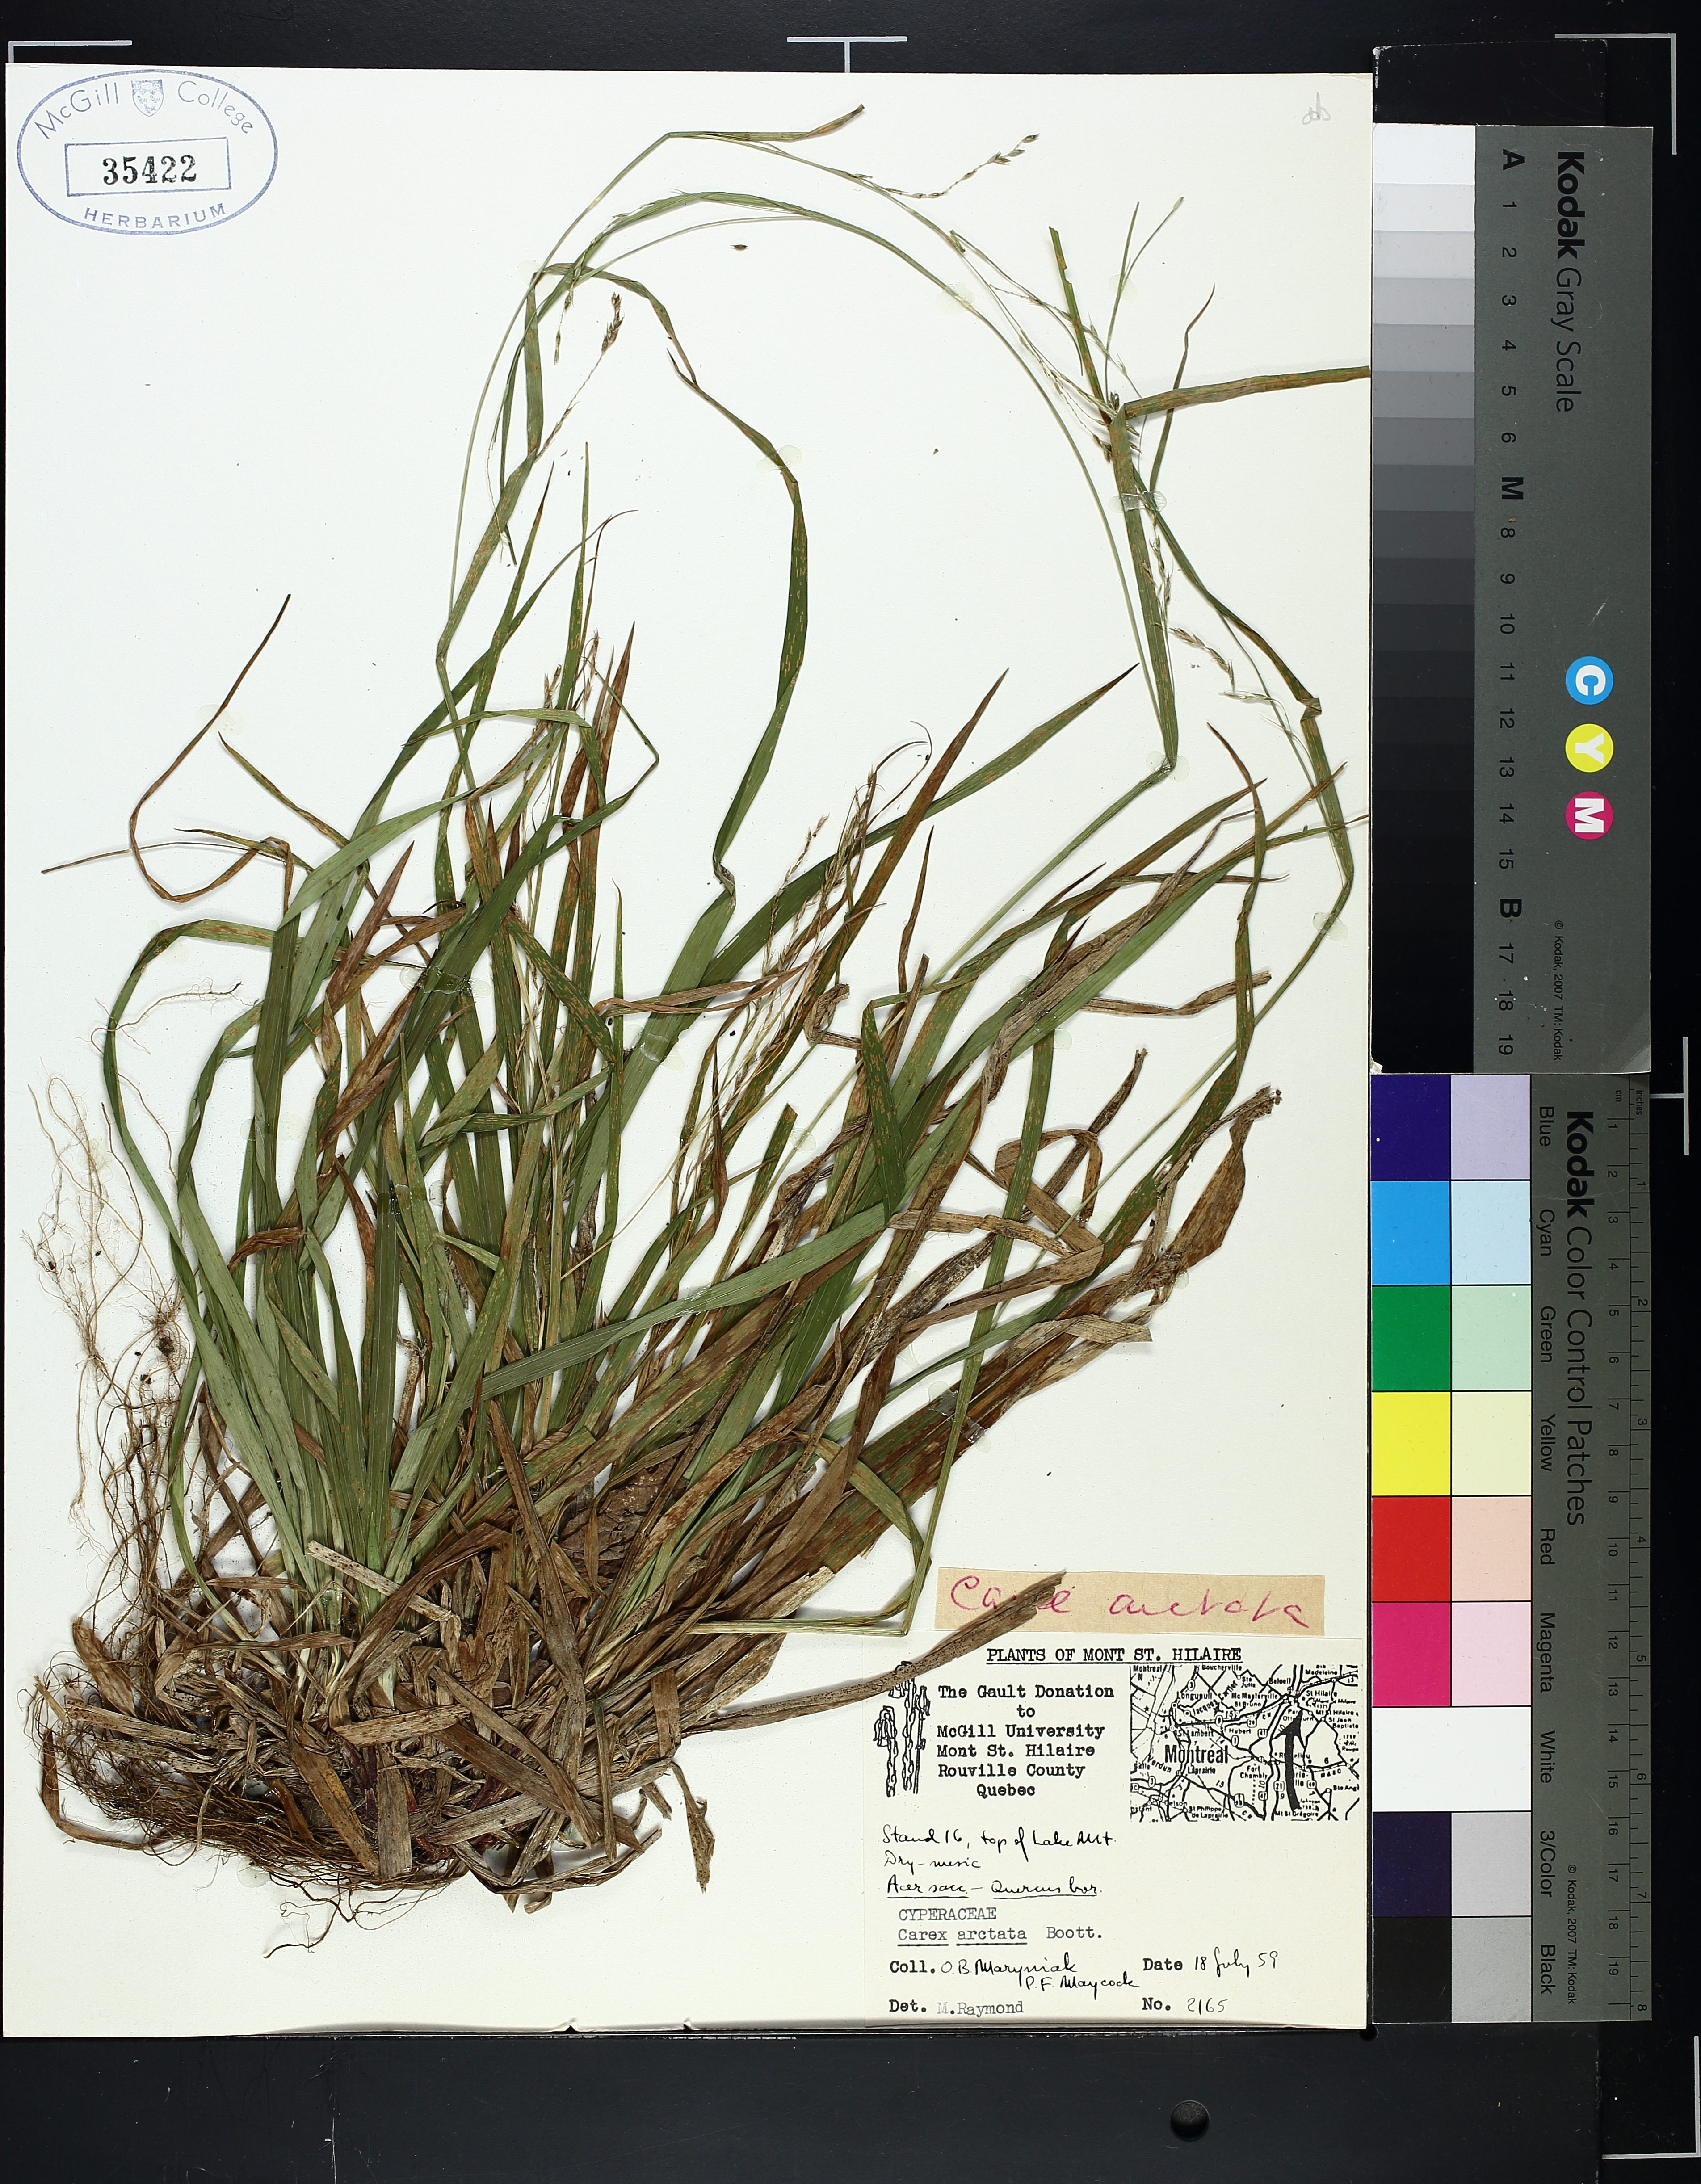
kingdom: Plantae
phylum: Tracheophyta
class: Liliopsida
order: Poales
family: Cyperaceae
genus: Carex
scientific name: Carex arctata
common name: Black sedge
